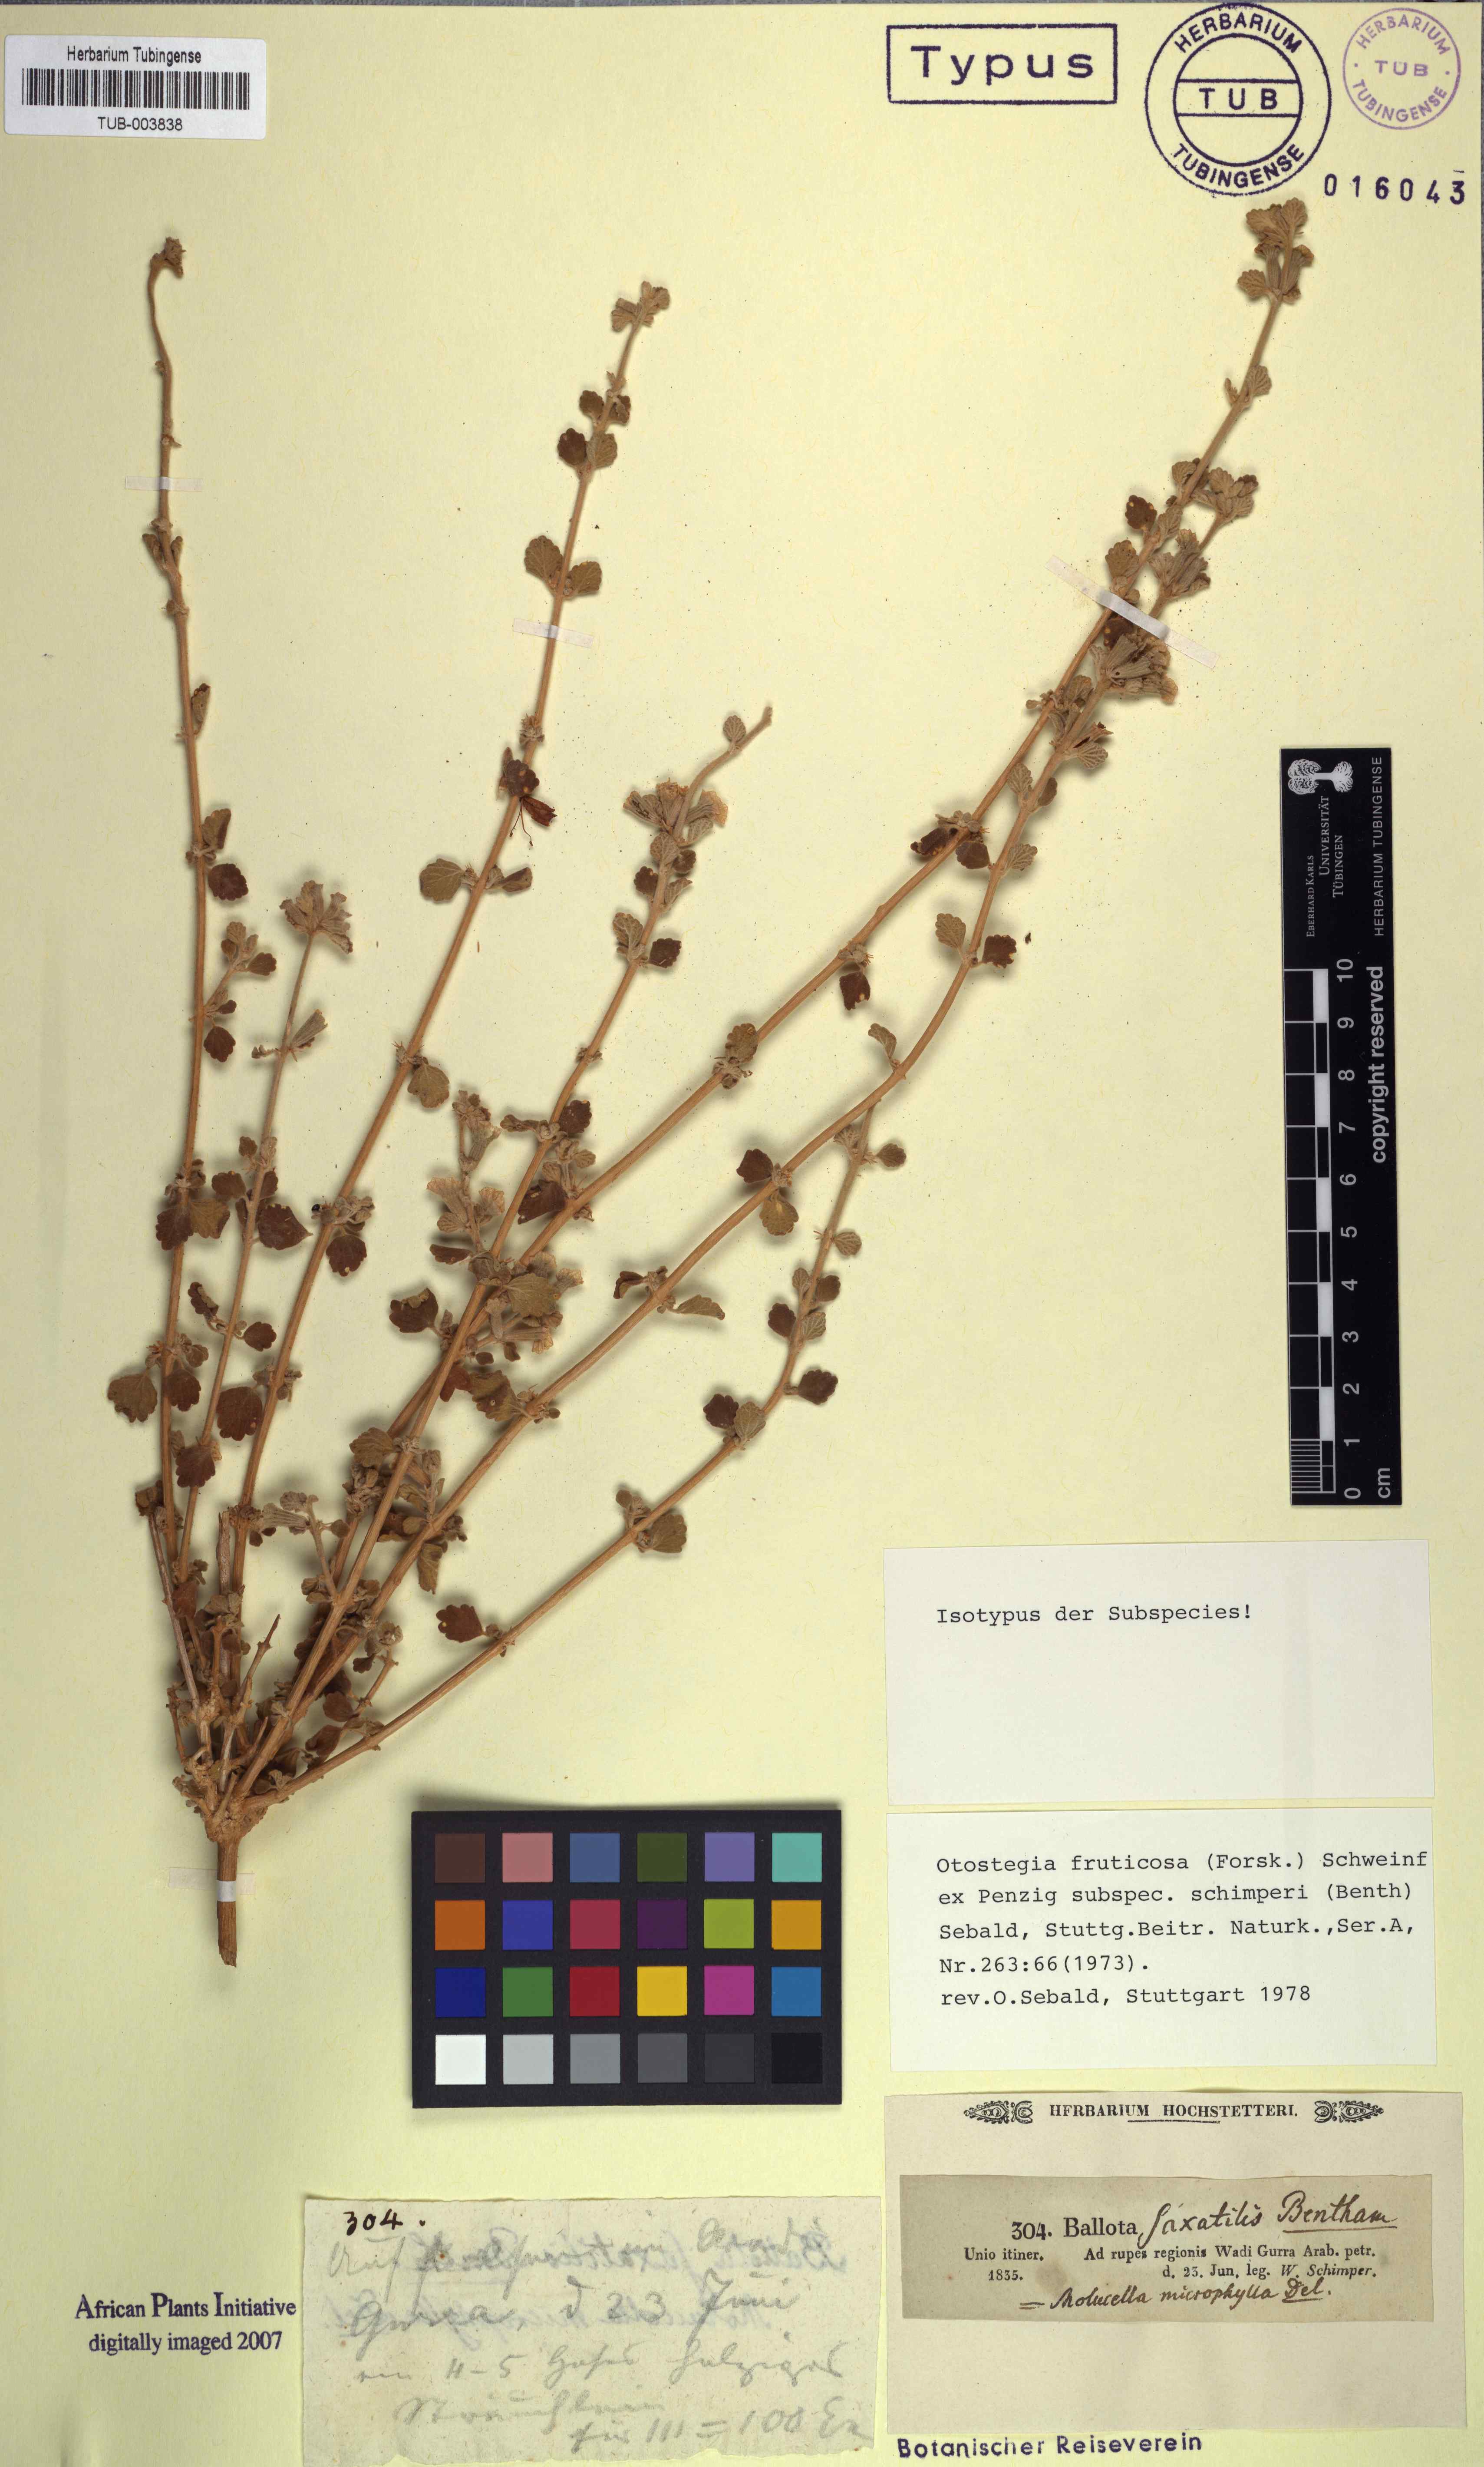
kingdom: Plantae
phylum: Tracheophyta
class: Magnoliopsida
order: Lamiales
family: Lamiaceae
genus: Otostegia
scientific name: Otostegia fruticosa
